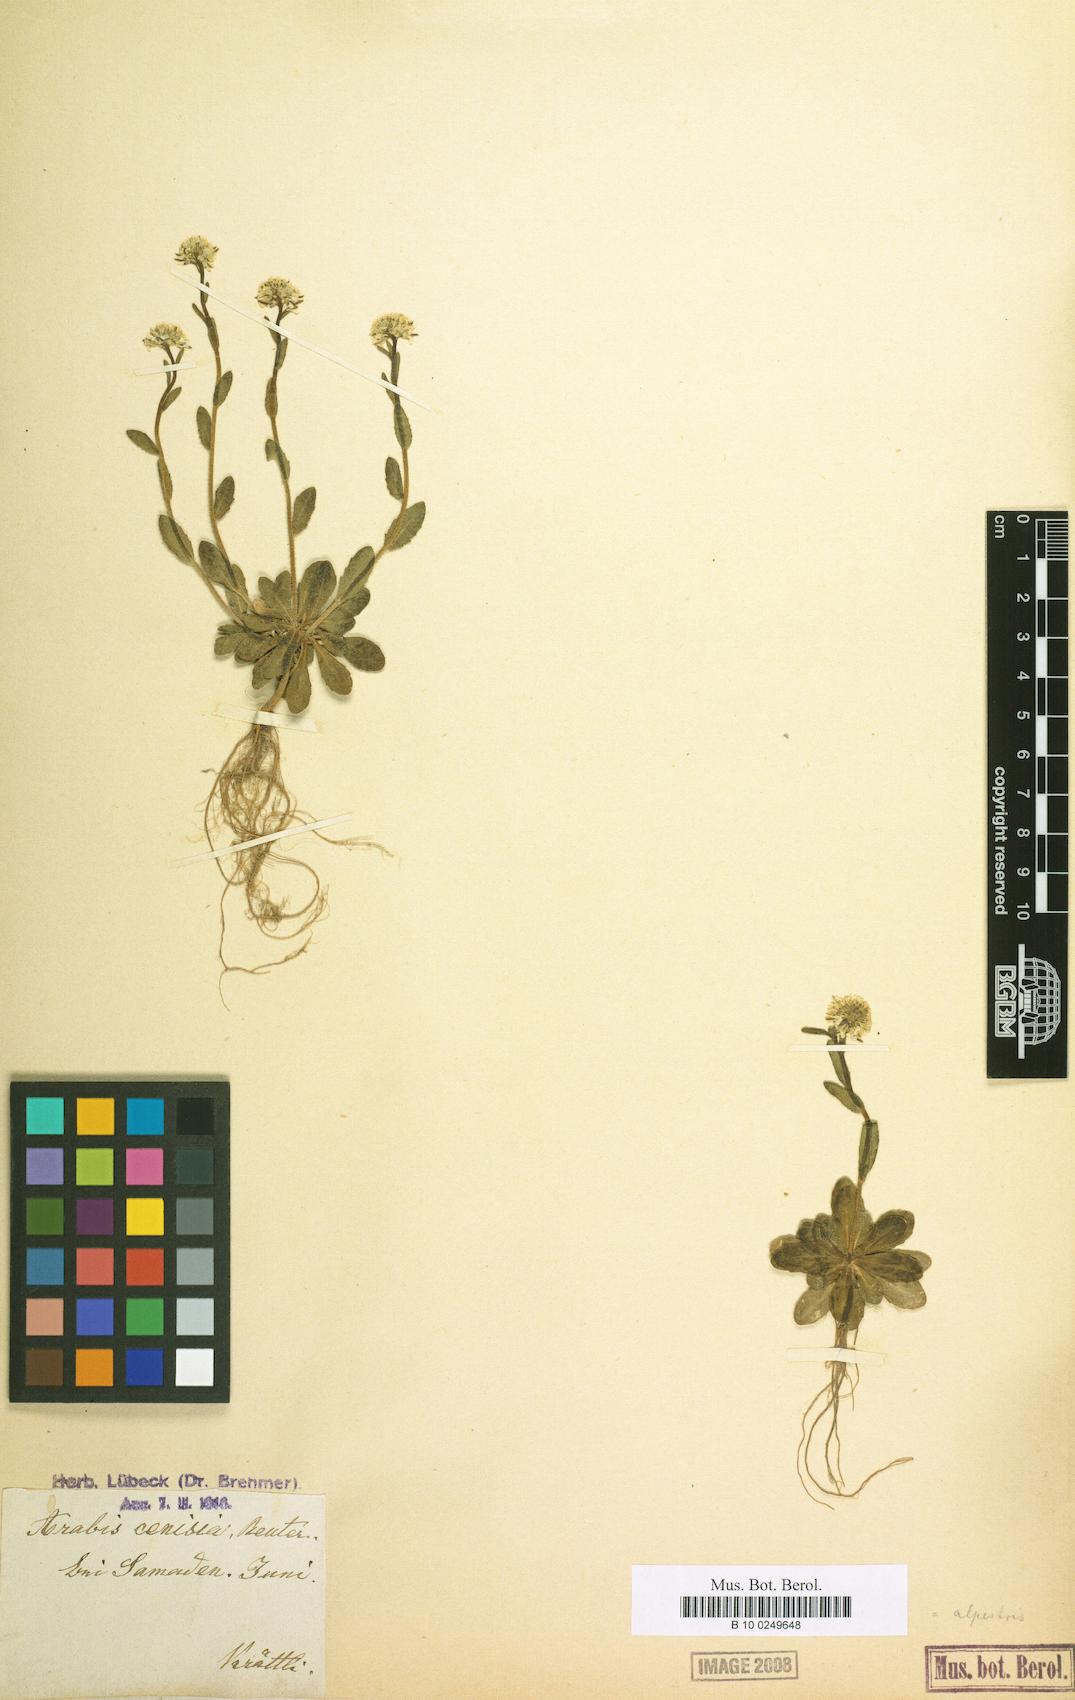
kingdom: Plantae
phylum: Tracheophyta
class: Magnoliopsida
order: Brassicales
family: Brassicaceae
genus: Arabis
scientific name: Arabis hirsuta
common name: Hairy rock-cress
